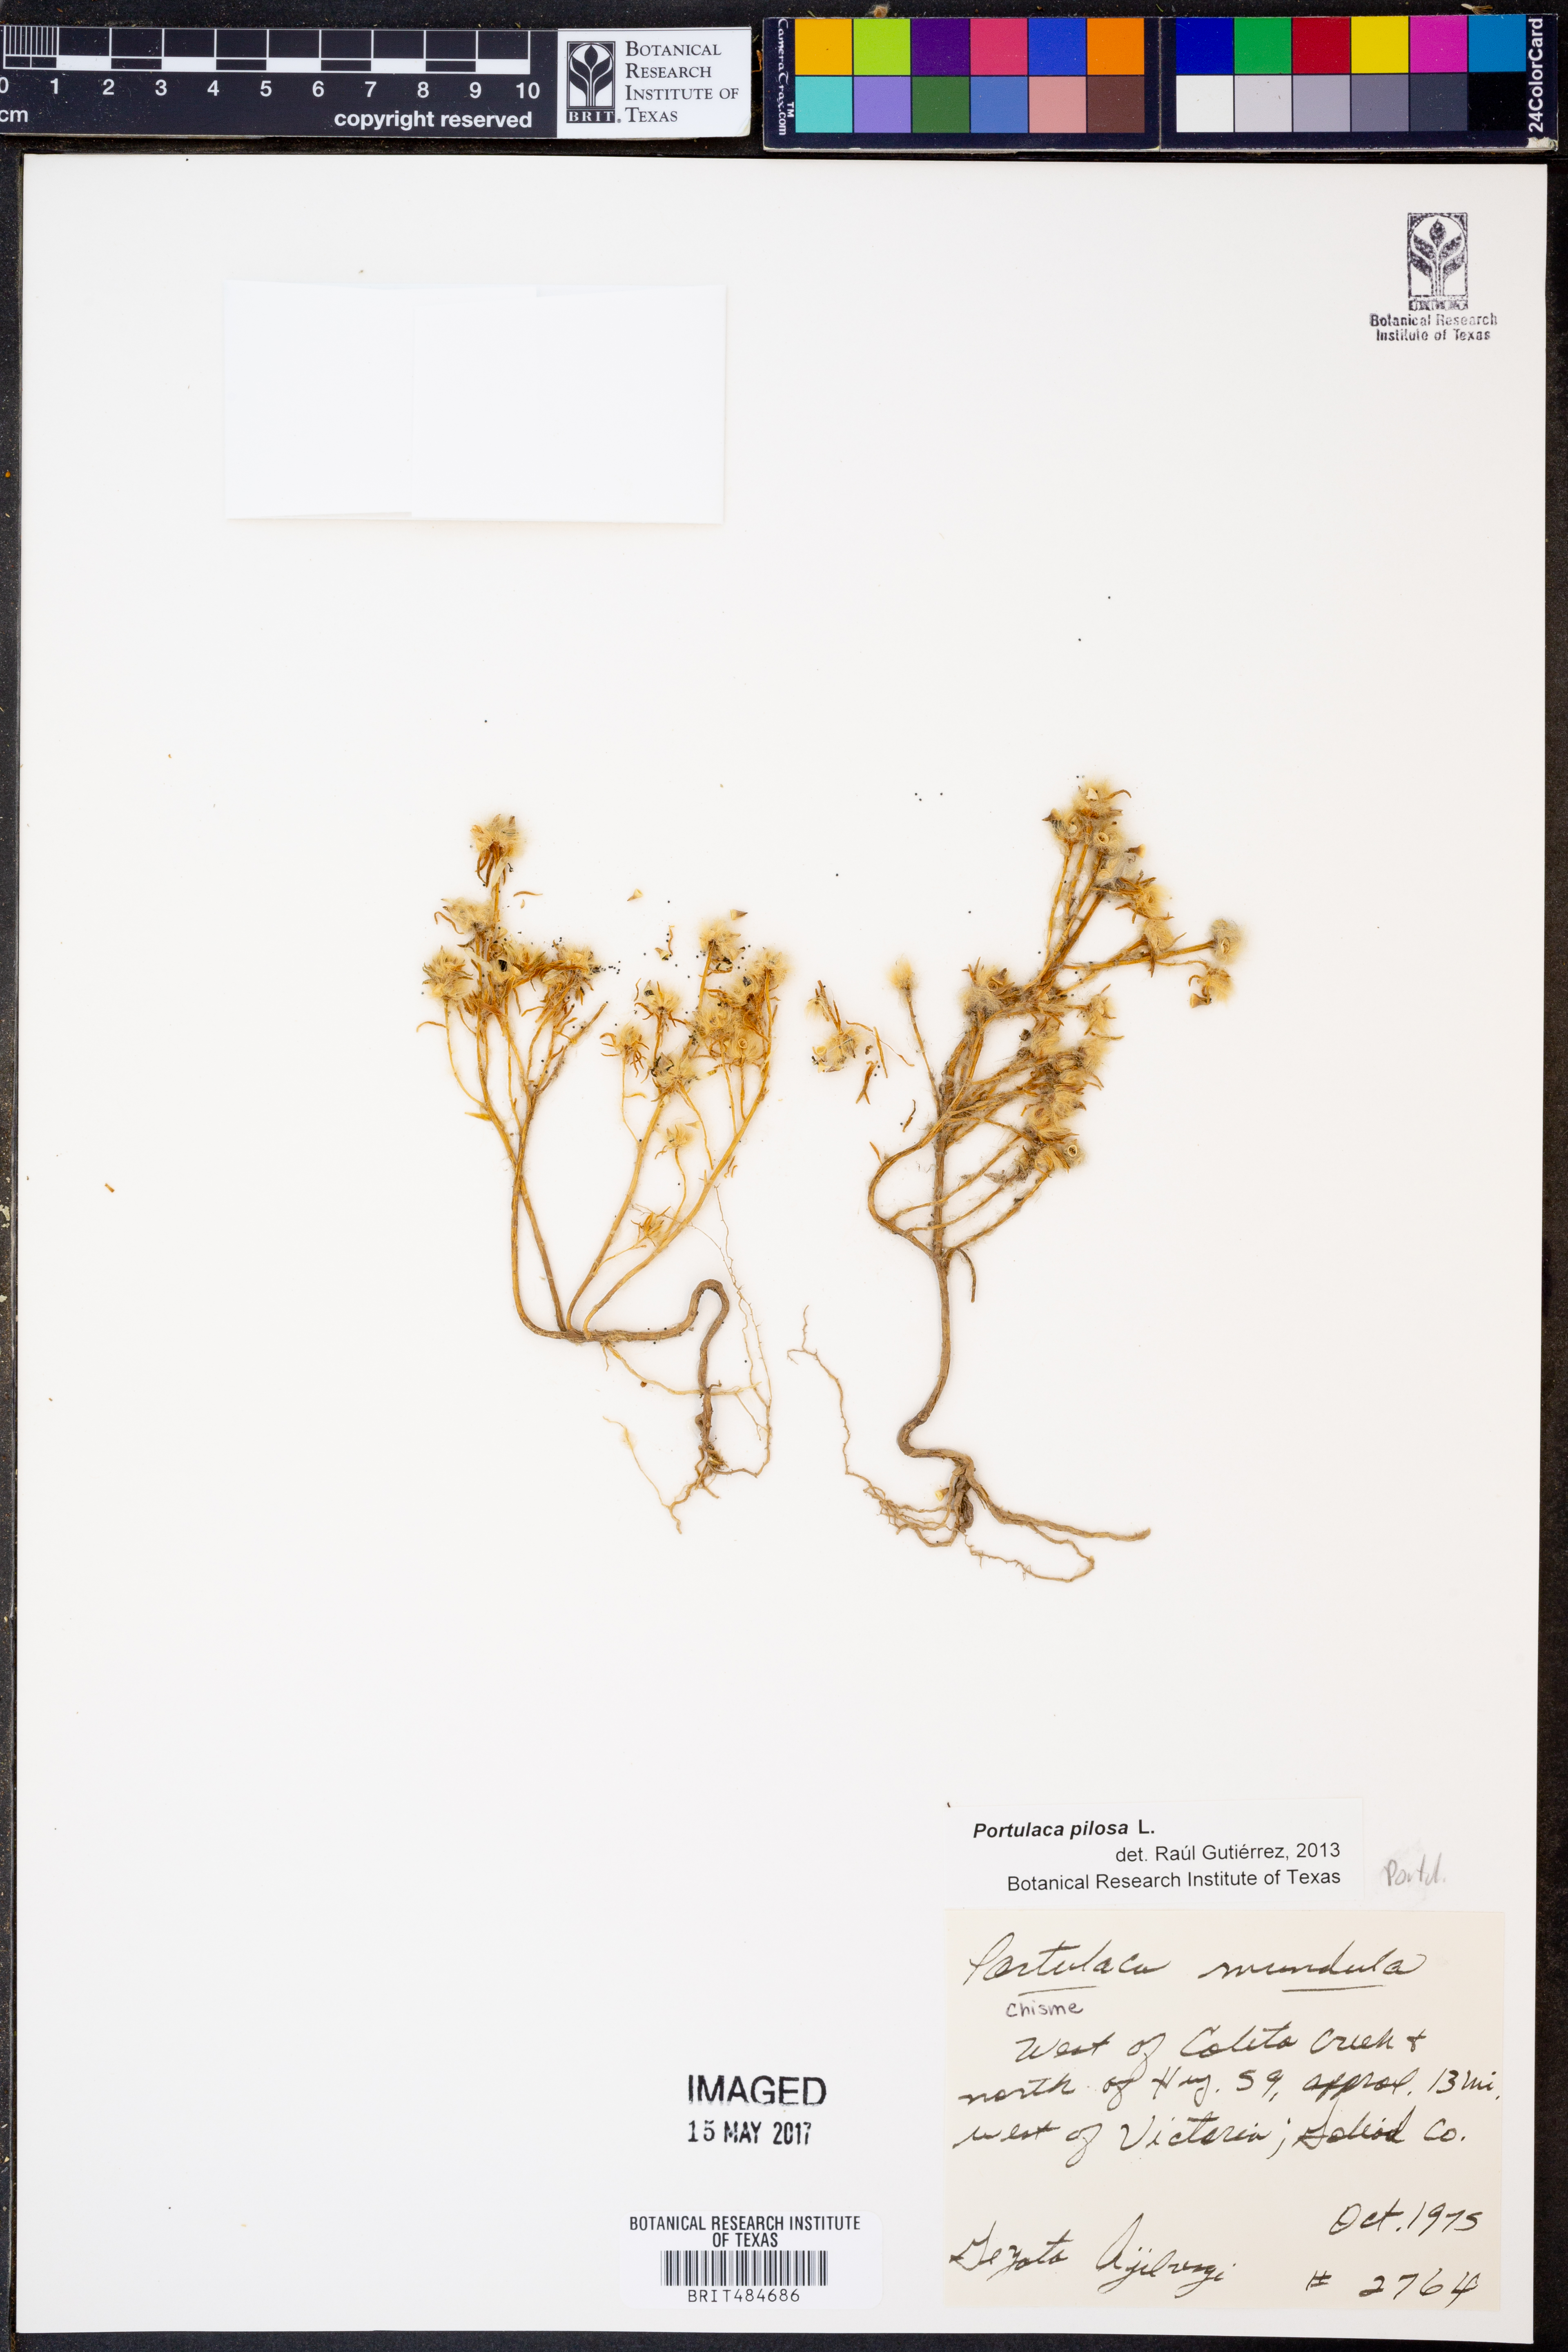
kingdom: Plantae
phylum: Tracheophyta
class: Magnoliopsida
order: Caryophyllales
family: Portulacaceae
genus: Portulaca
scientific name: Portulaca pilosa
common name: Kiss me quick
